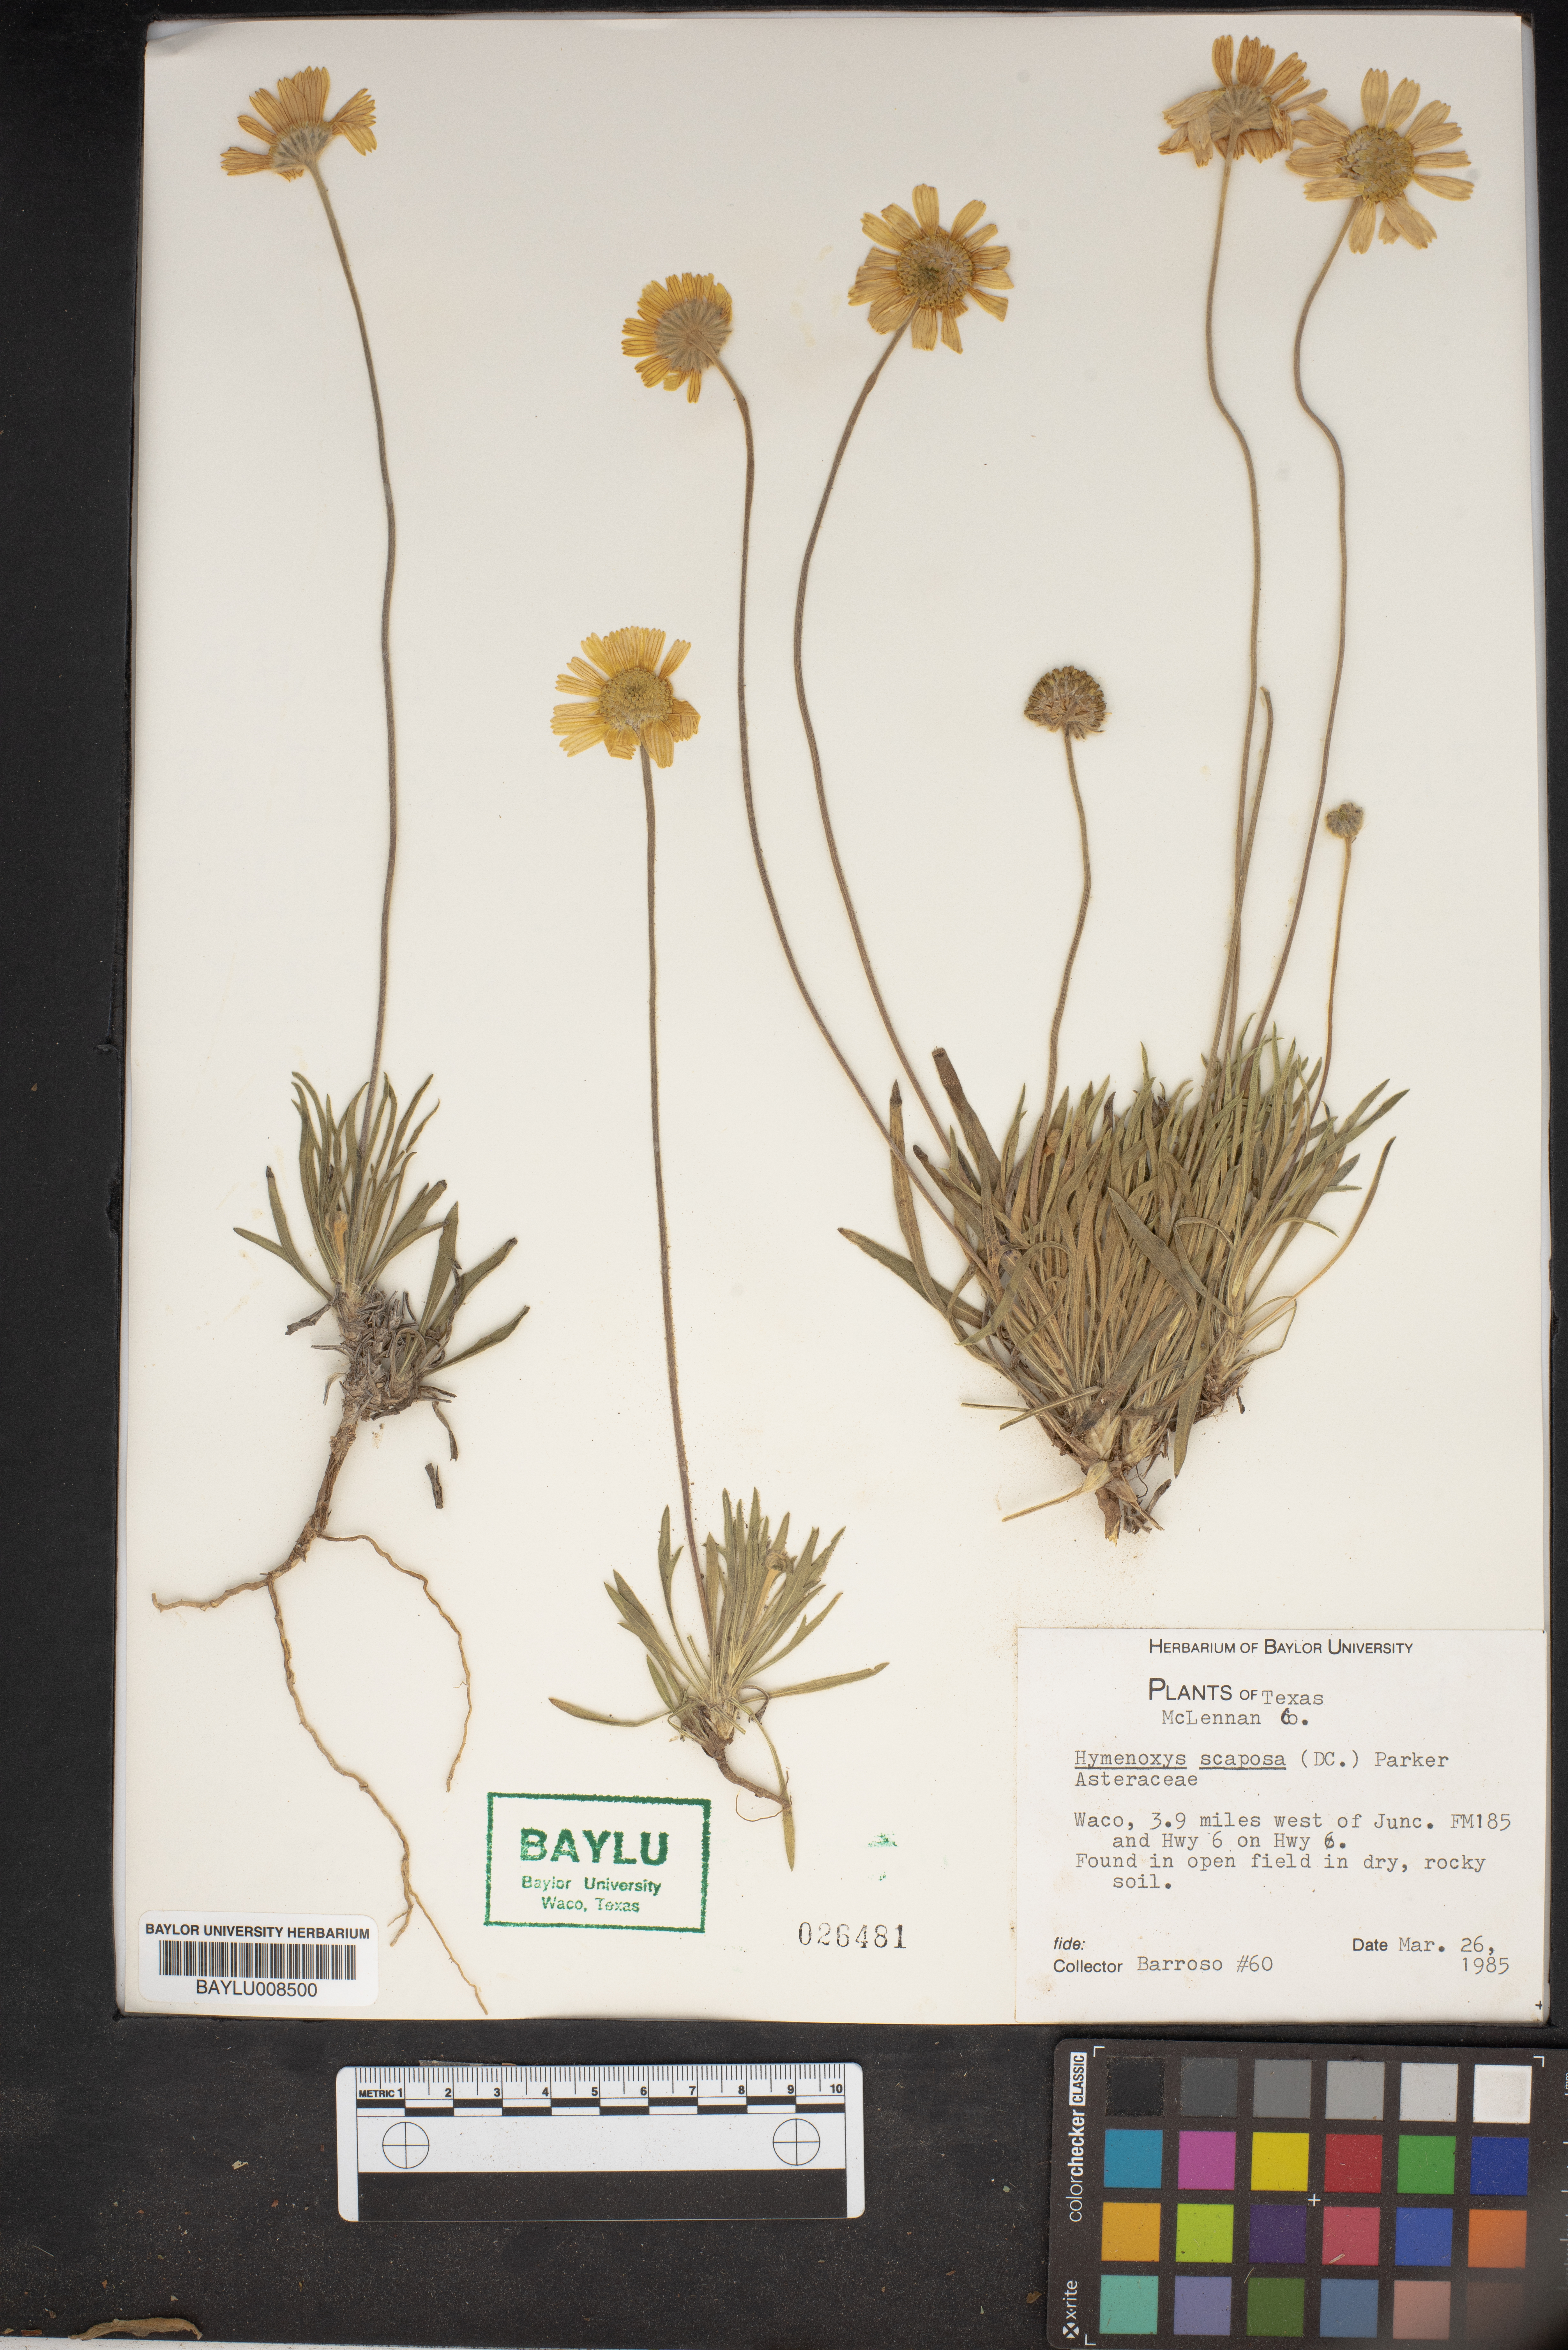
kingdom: Plantae
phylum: Tracheophyta
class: Magnoliopsida
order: Asterales
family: Asteraceae
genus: Tetraneuris
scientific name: Tetraneuris scaposa
